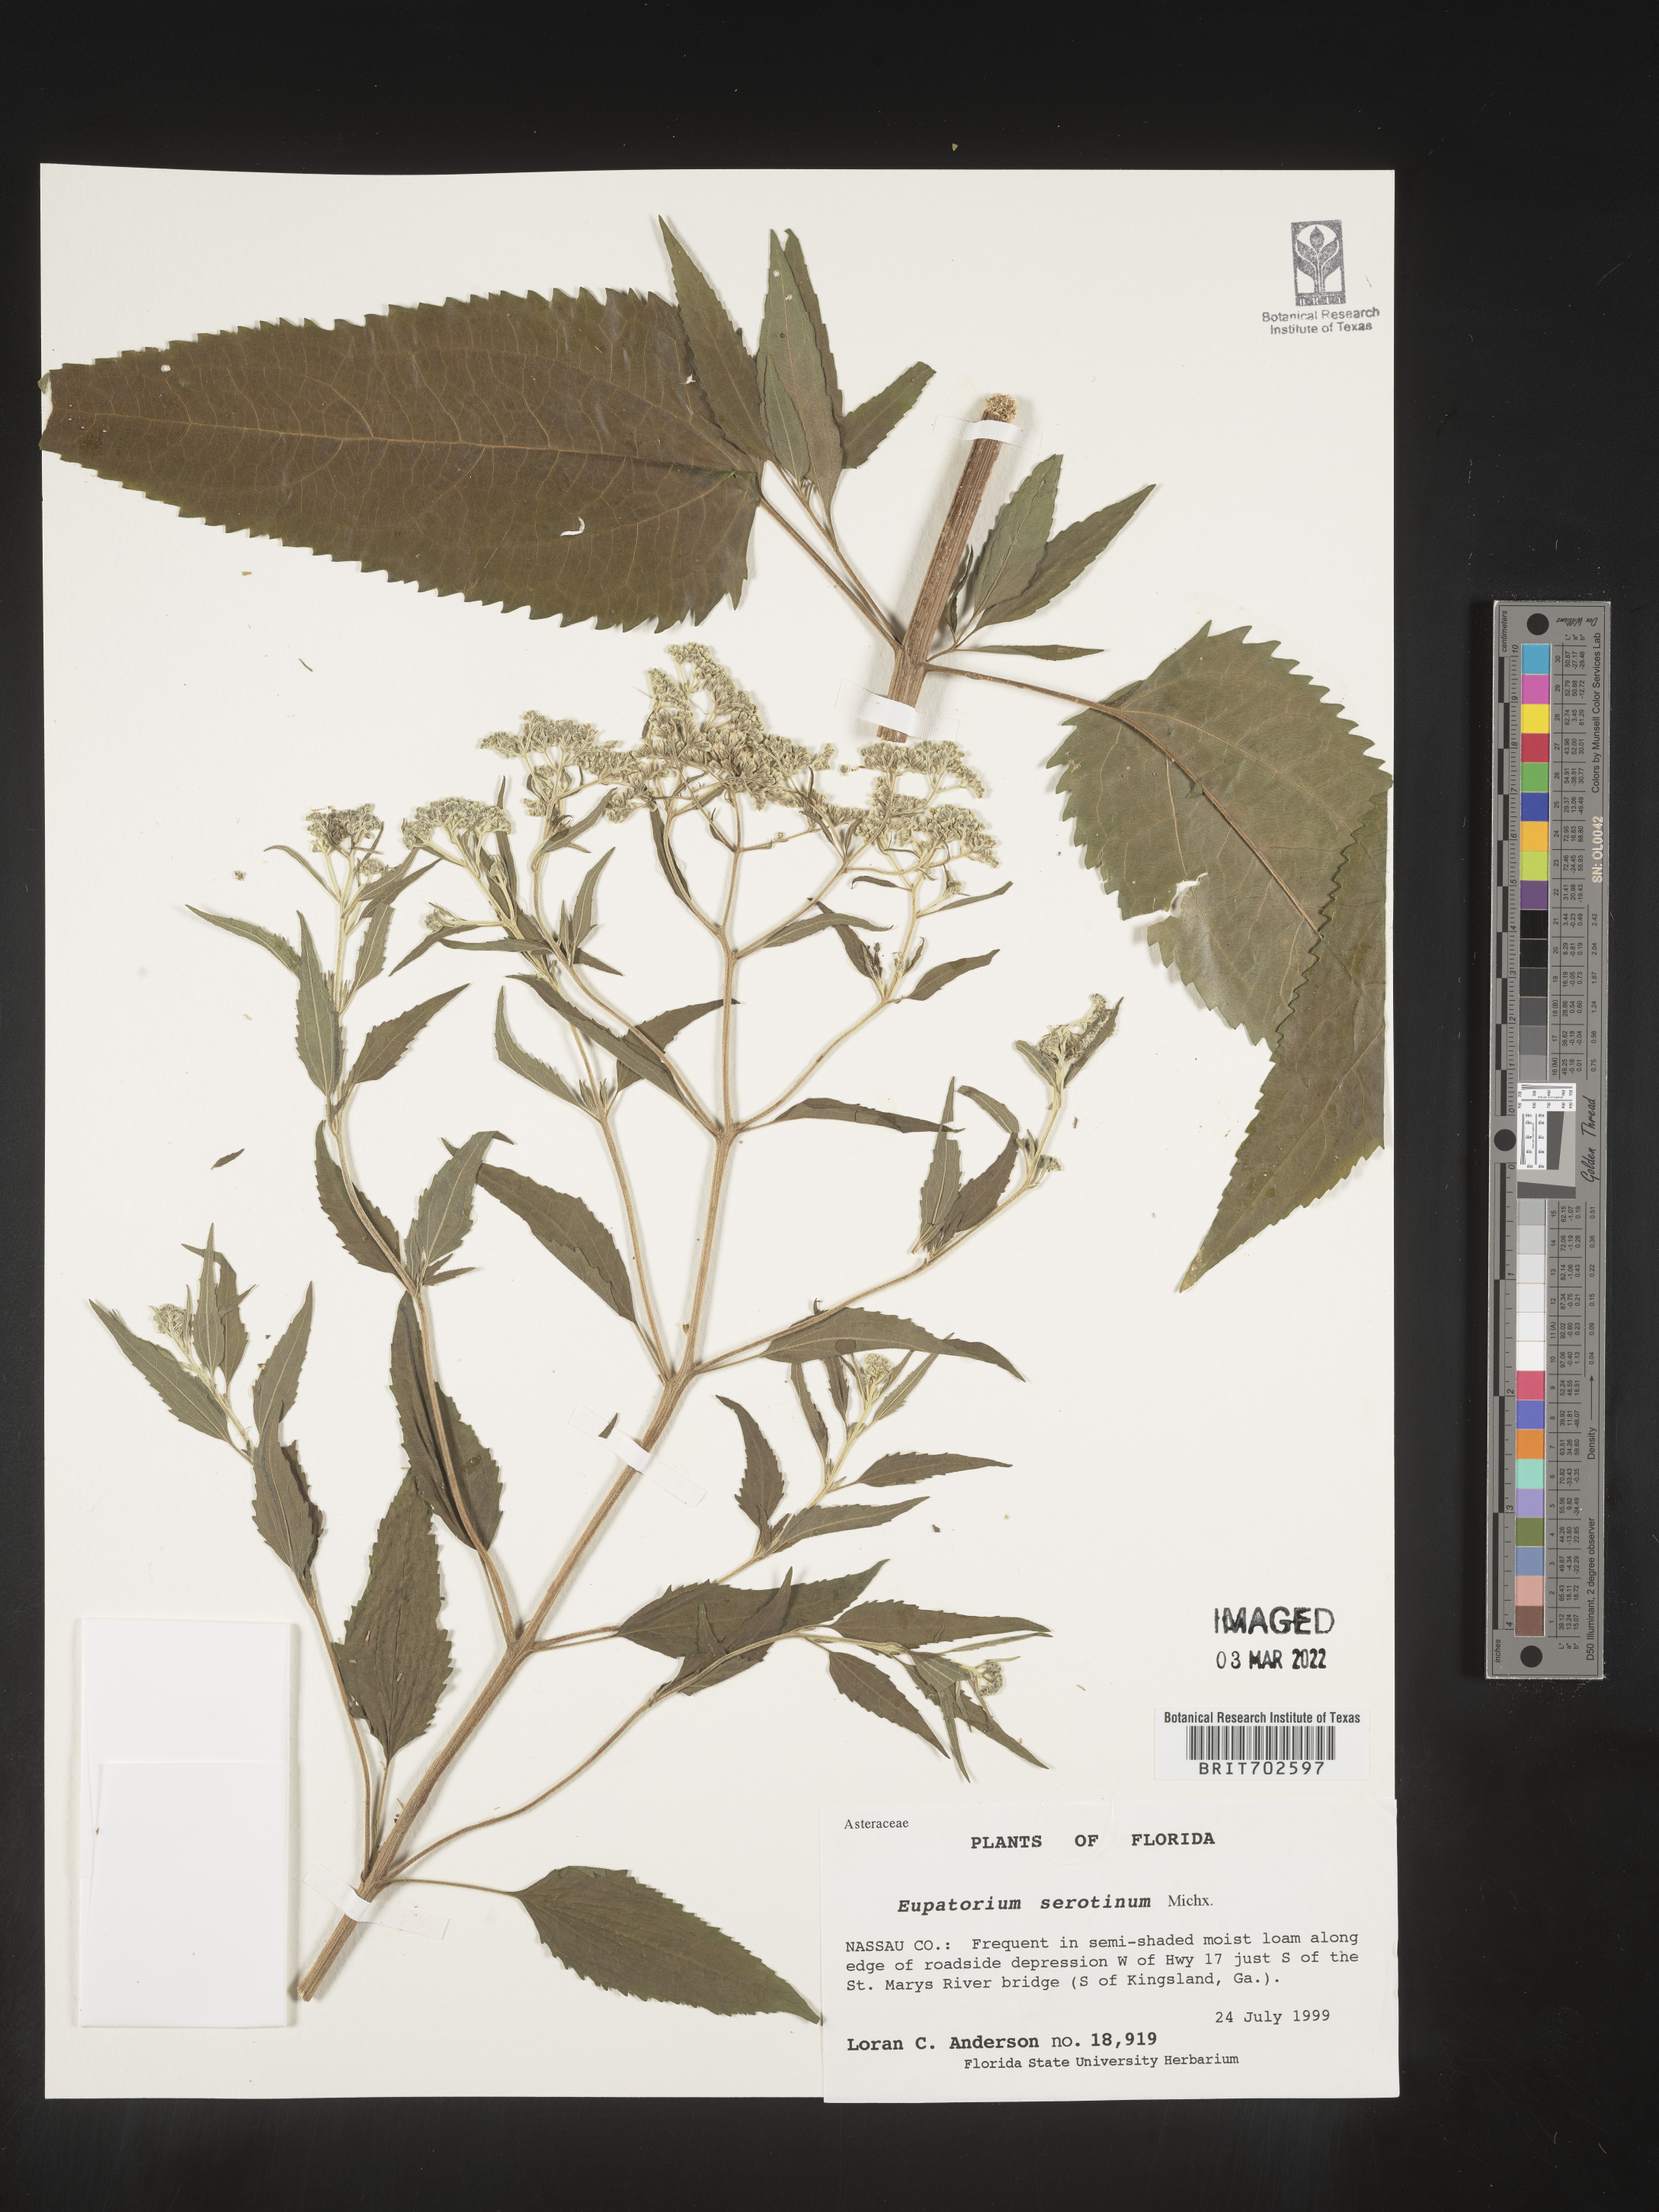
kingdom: Plantae
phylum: Tracheophyta
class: Magnoliopsida
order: Asterales
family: Asteraceae
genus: Eupatorium
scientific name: Eupatorium serotinum
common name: Late boneset
